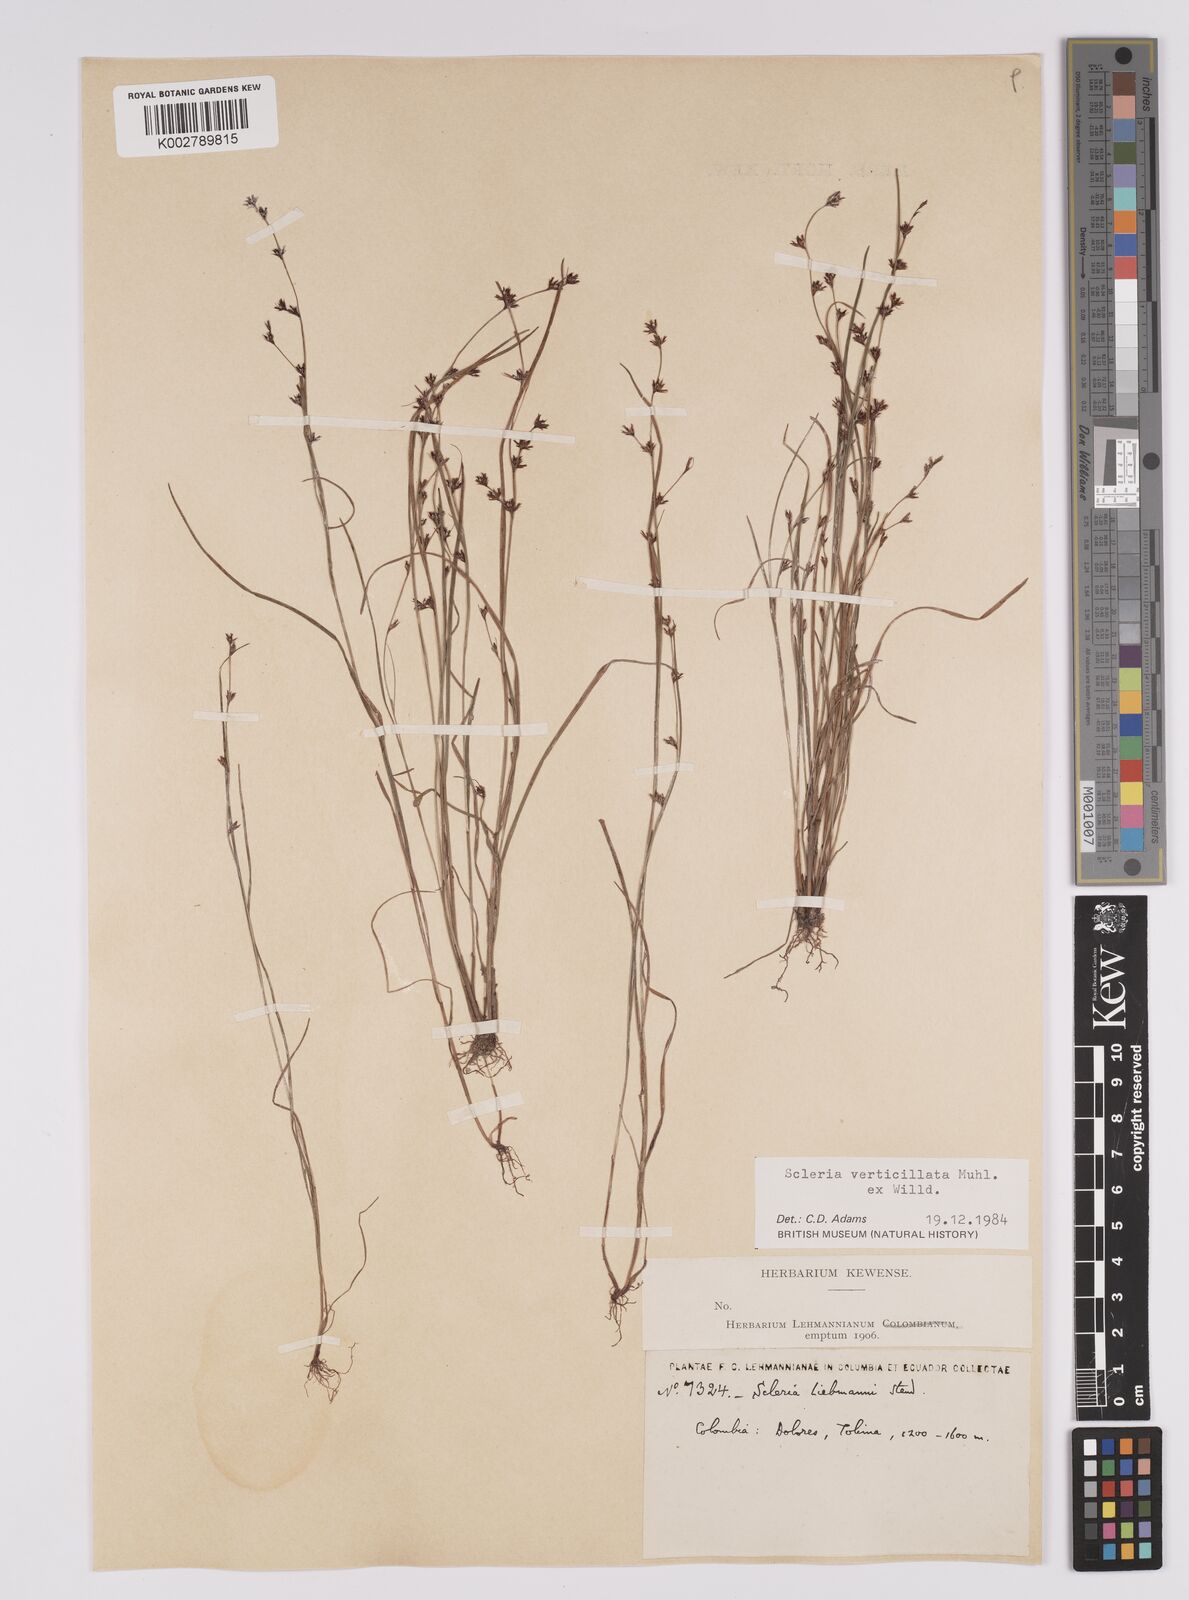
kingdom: Plantae
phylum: Tracheophyta
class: Liliopsida
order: Poales
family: Cyperaceae
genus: Scleria
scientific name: Scleria distans
